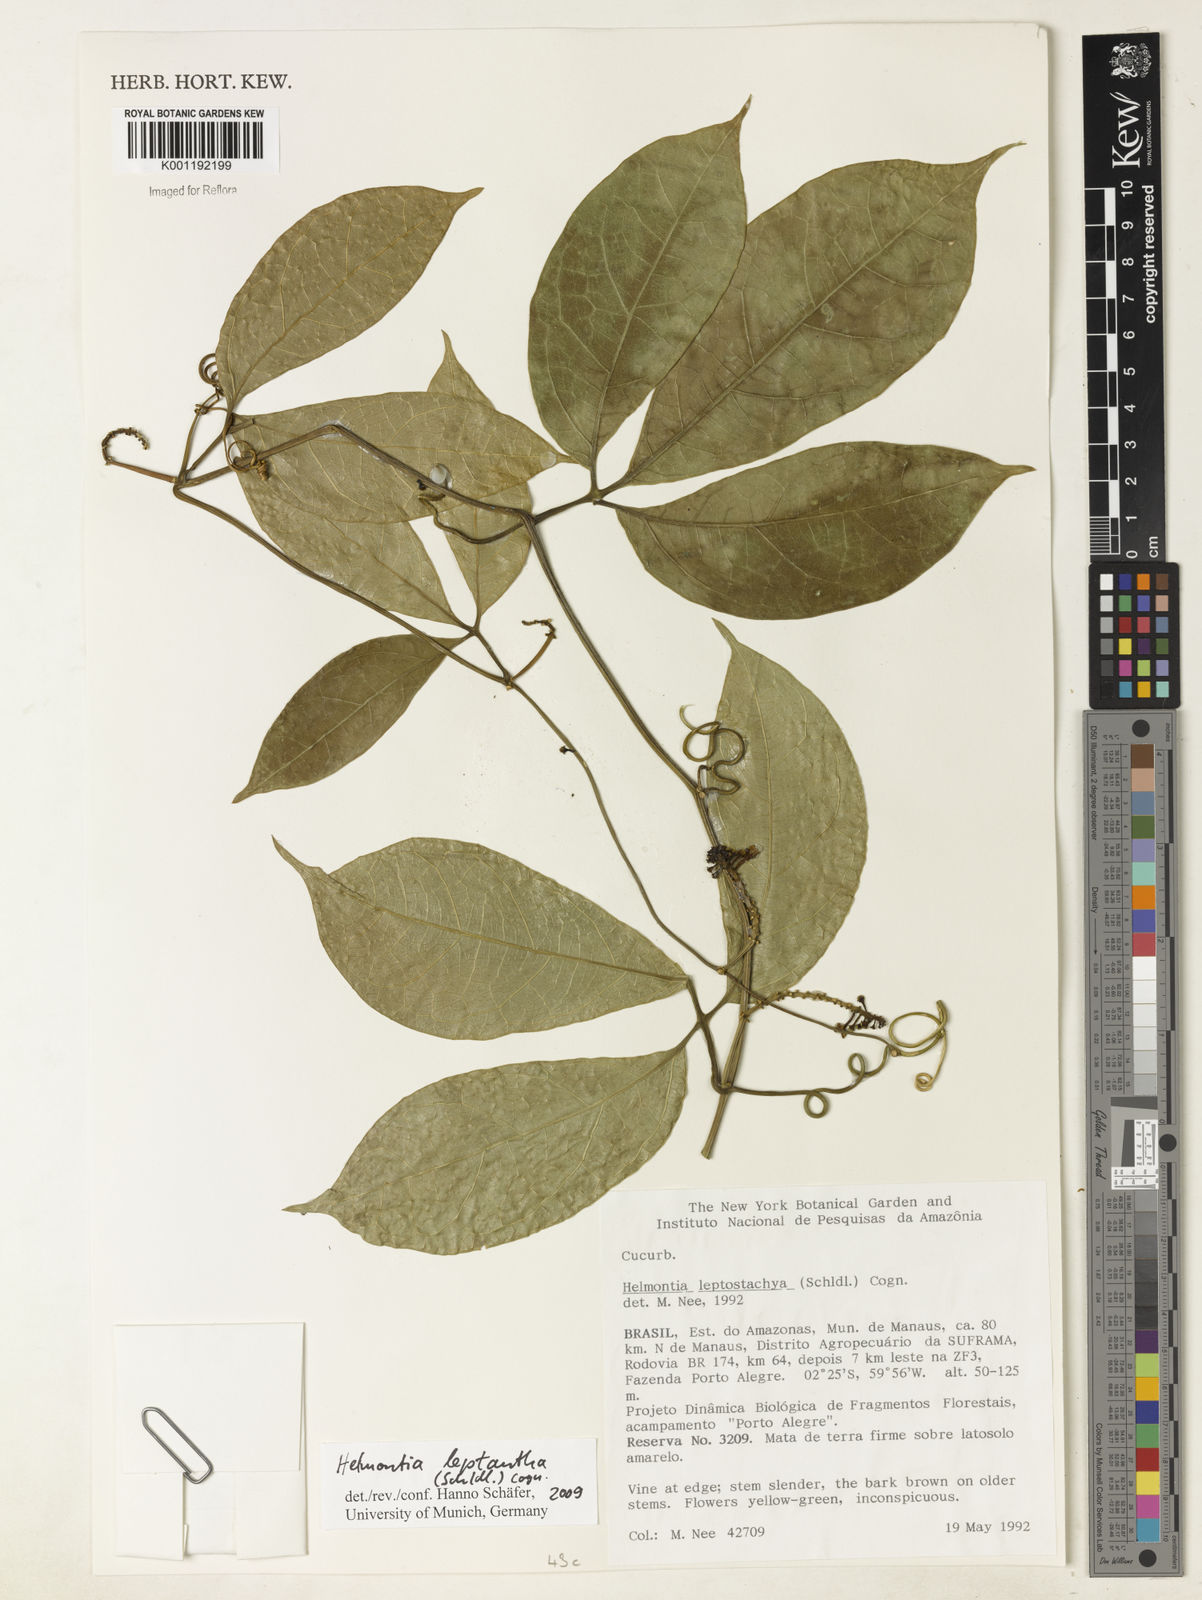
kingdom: Plantae
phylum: Tracheophyta
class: Magnoliopsida
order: Cucurbitales
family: Cucurbitaceae
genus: Helmontia
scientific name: Helmontia leptantha
